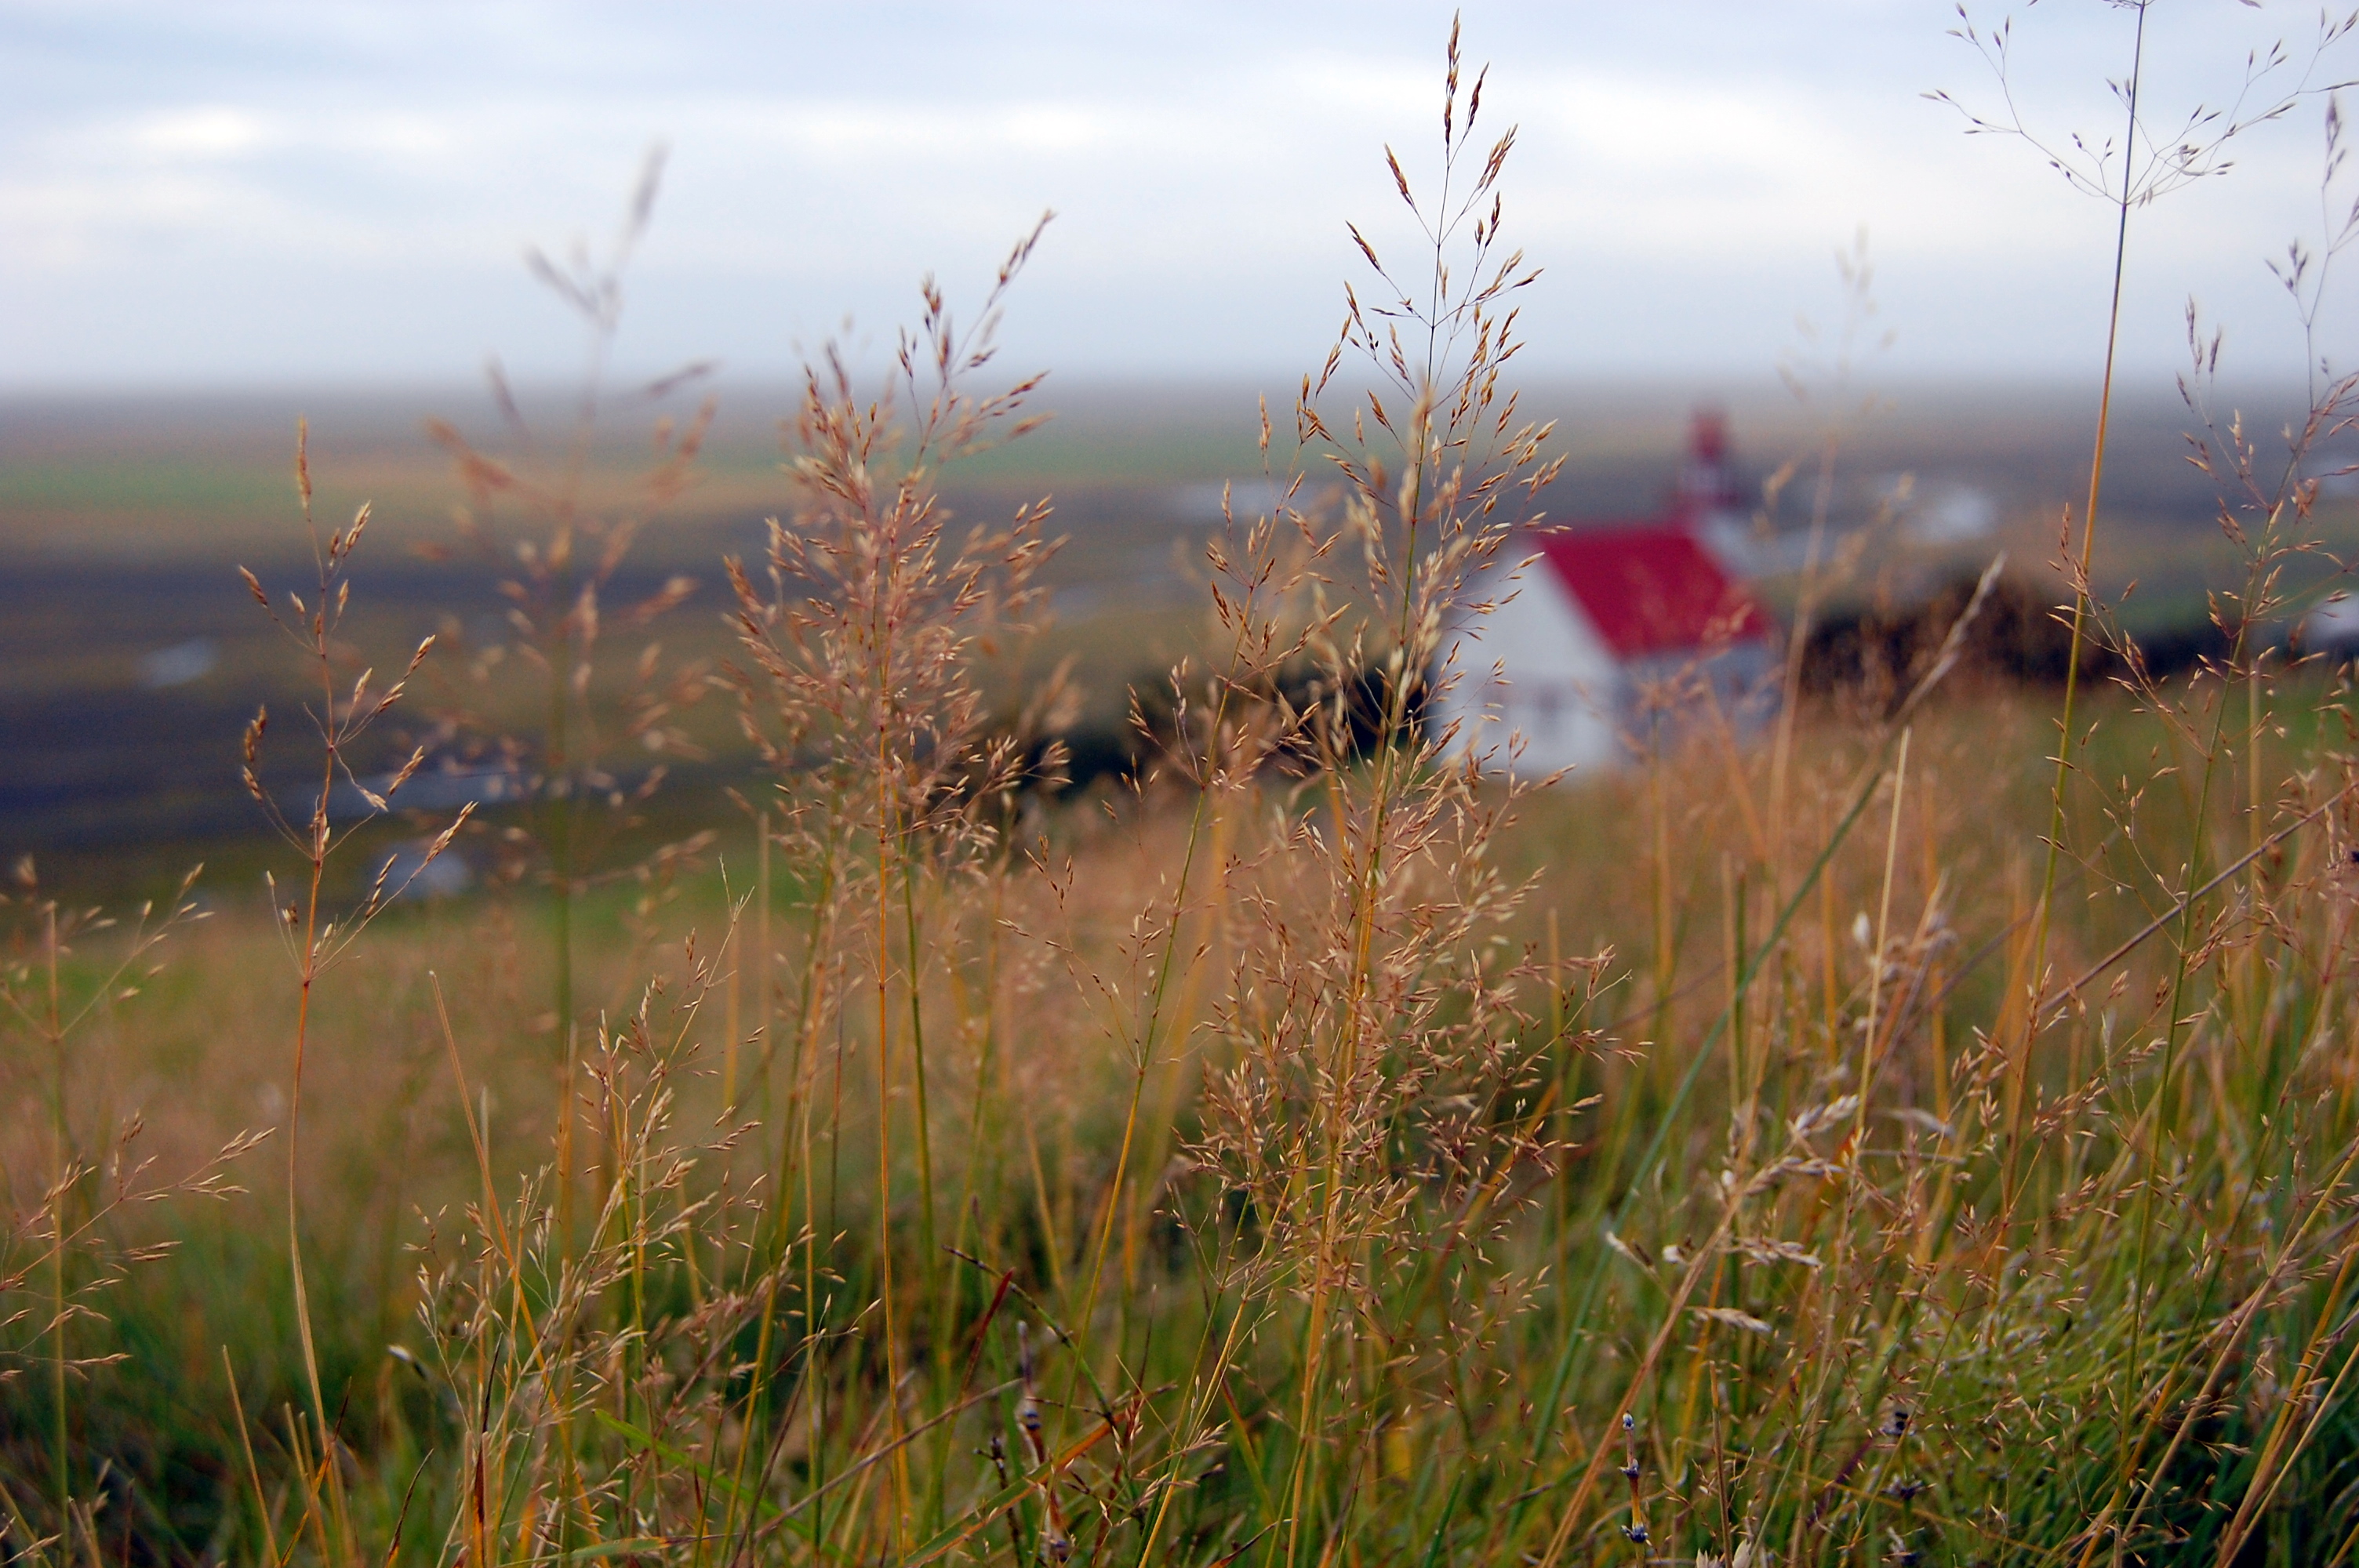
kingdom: Plantae
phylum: Tracheophyta
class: Liliopsida
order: Poales
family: Poaceae
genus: Agrostis
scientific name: Agrostis capillaris
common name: Colonial bentgrass
